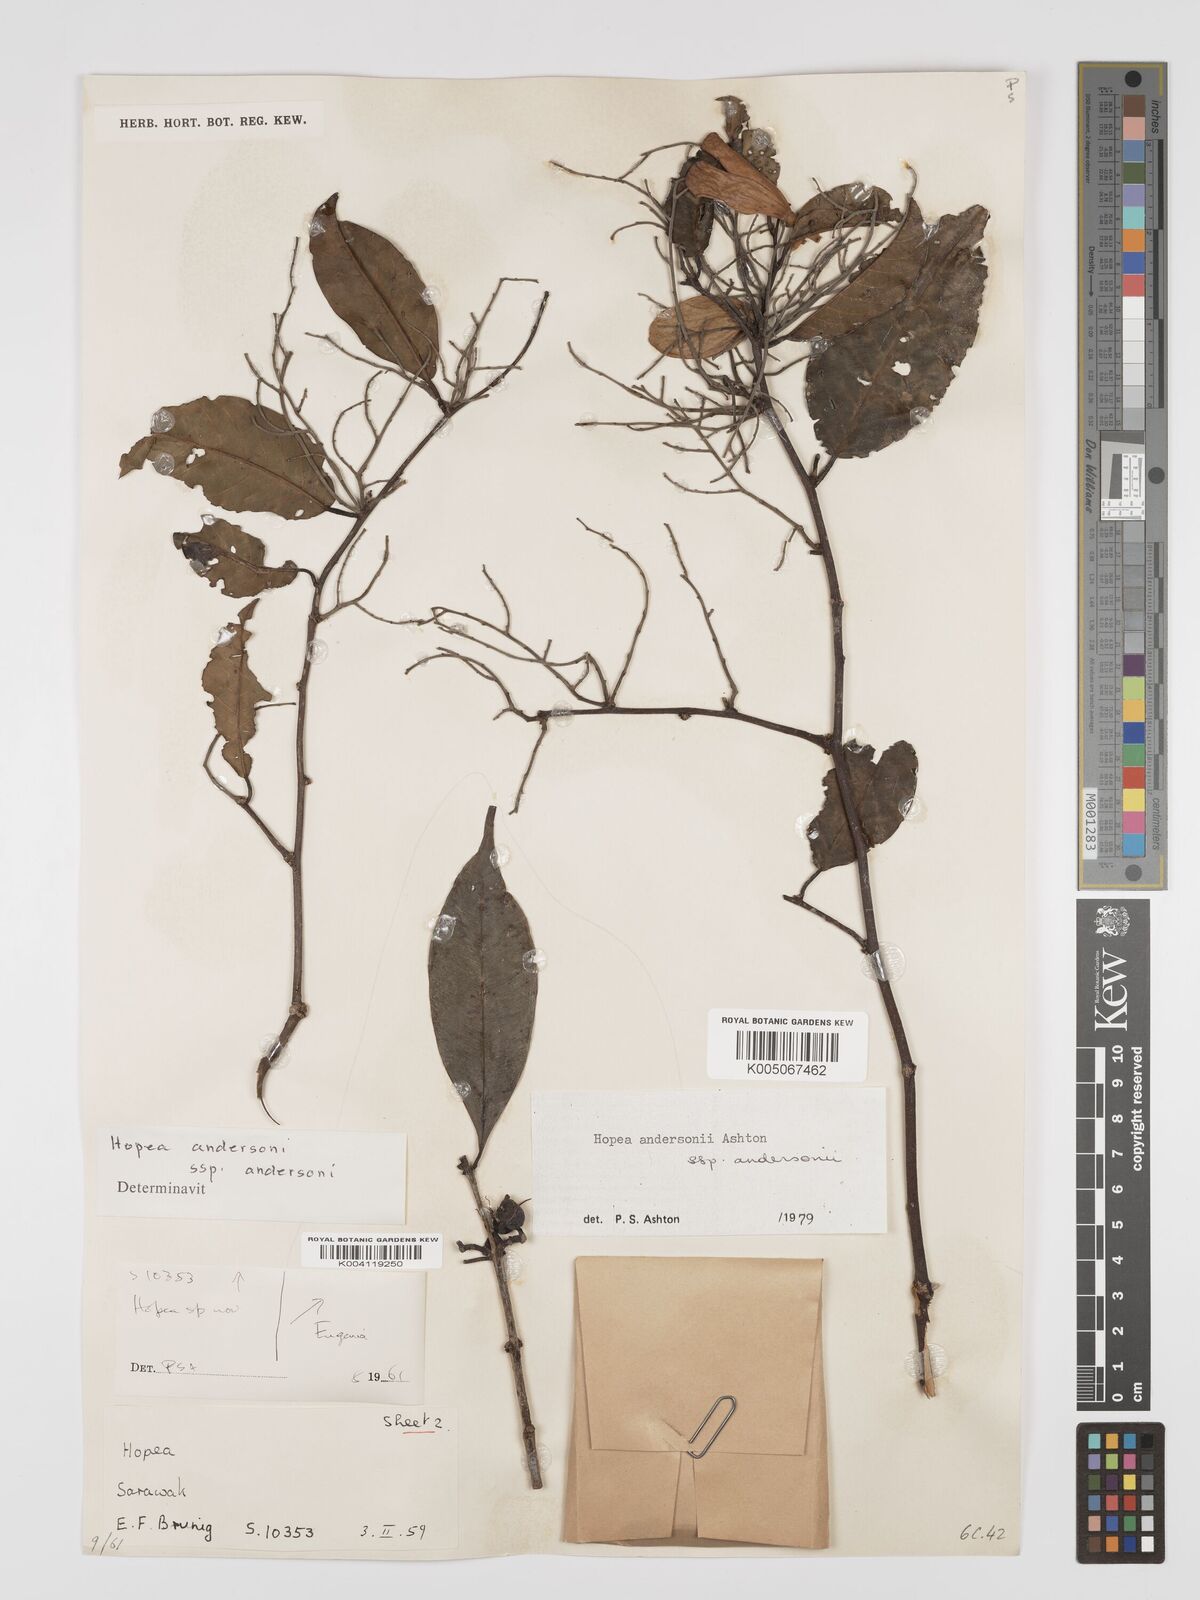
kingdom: Plantae
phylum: Tracheophyta
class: Magnoliopsida
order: Malvales
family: Dipterocarpaceae
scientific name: Dipterocarpaceae
